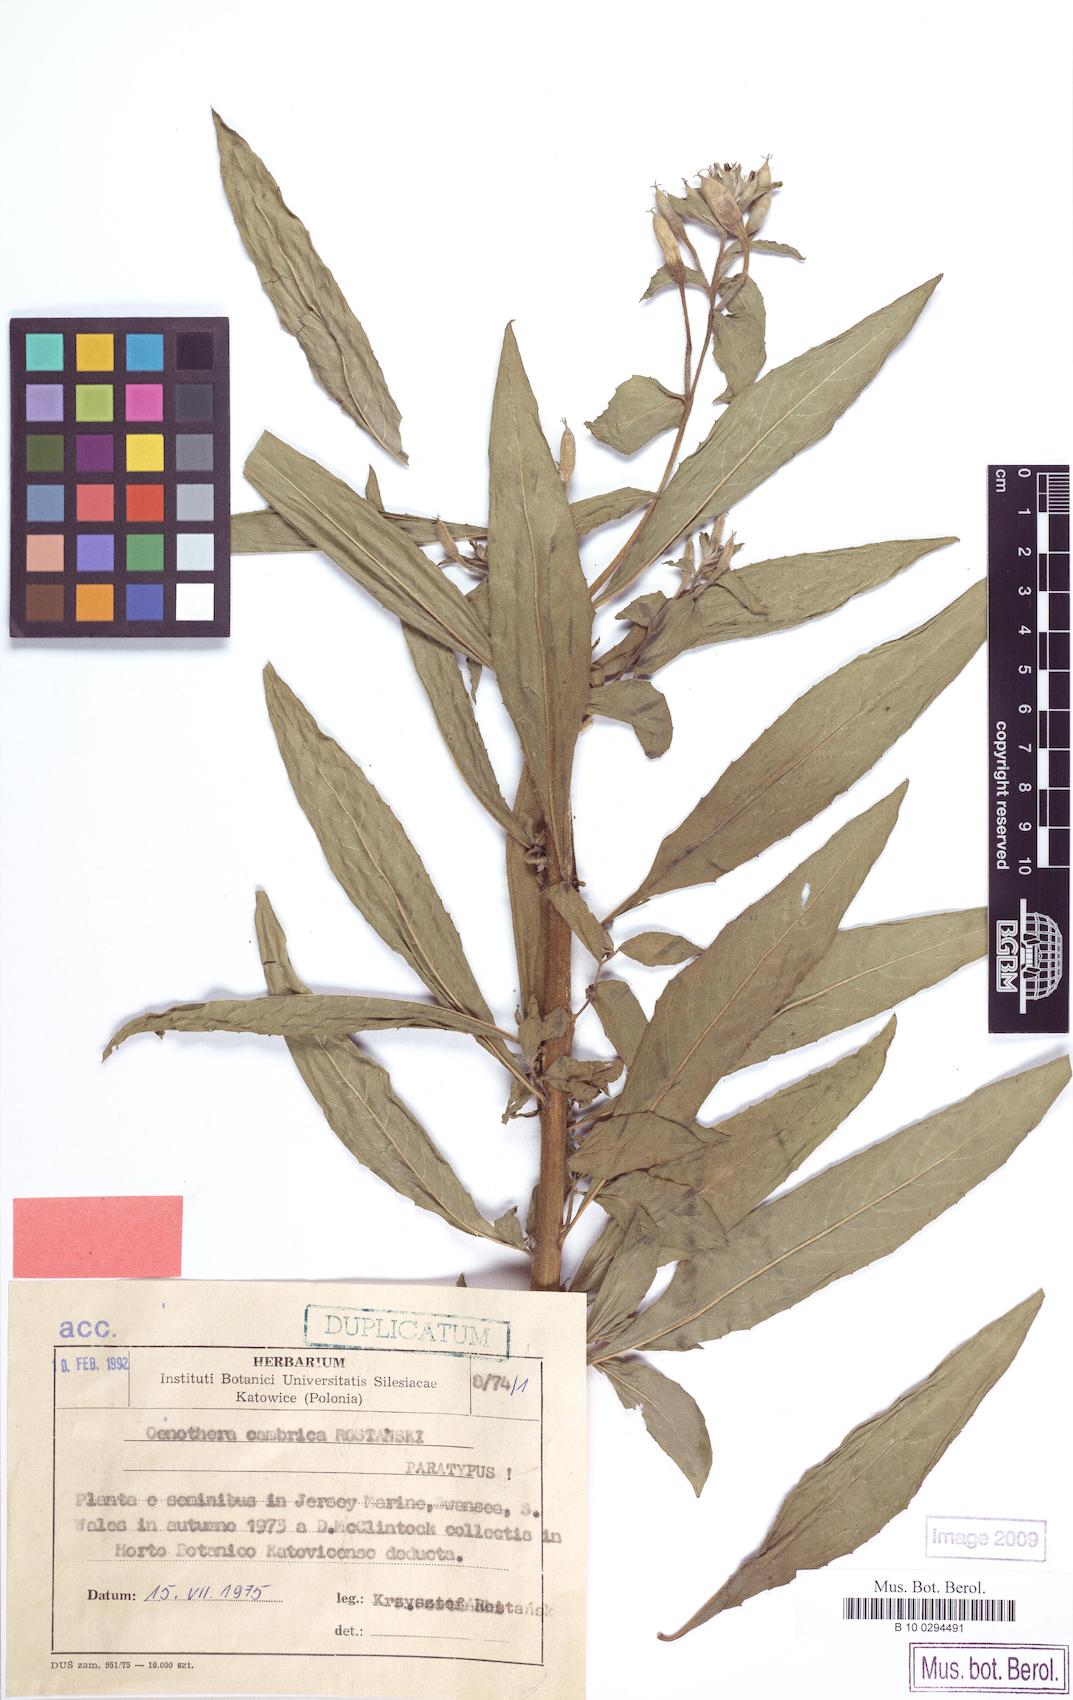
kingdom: Plantae
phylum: Tracheophyta
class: Magnoliopsida
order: Myrtales
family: Onagraceae
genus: Oenothera
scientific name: Oenothera cambrica
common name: Small-flowered evening-primrose
